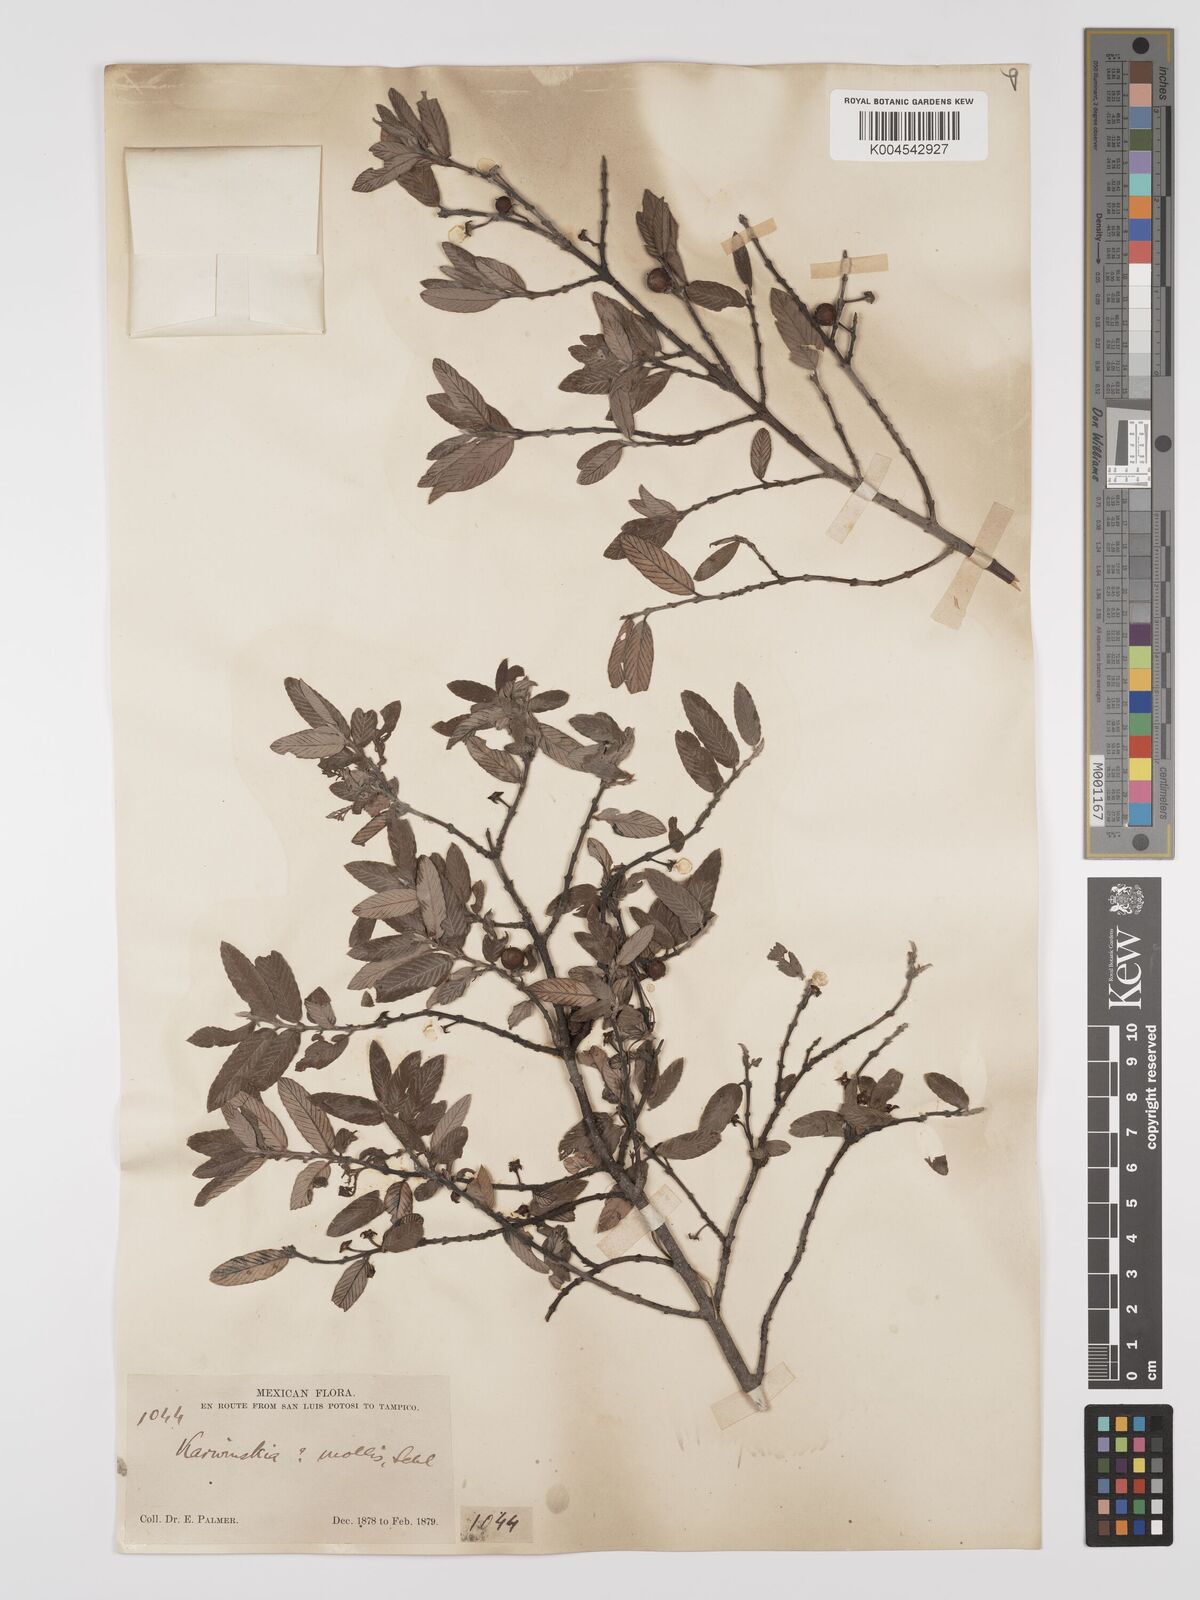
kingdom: Plantae
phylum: Tracheophyta
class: Magnoliopsida
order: Rosales
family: Rhamnaceae
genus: Karwinskia
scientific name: Karwinskia mollis
